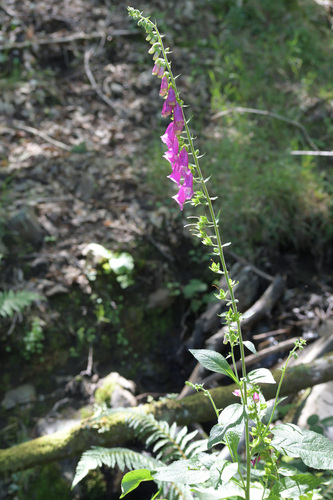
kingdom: Plantae
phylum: Tracheophyta
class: Magnoliopsida
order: Lamiales
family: Plantaginaceae
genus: Digitalis
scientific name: Digitalis purpurea
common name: Foxglove
